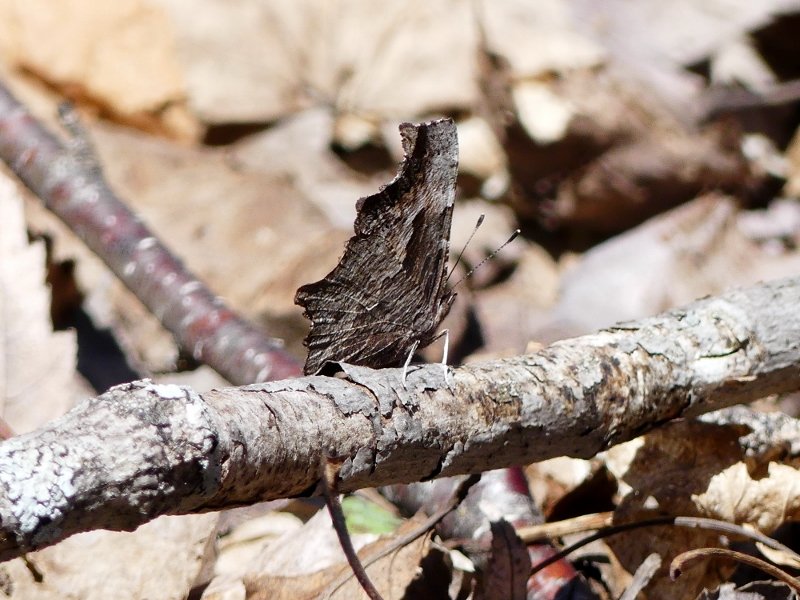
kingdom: Animalia
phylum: Arthropoda
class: Insecta
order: Lepidoptera
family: Nymphalidae
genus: Polygonia
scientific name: Polygonia progne
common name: Gray Comma
